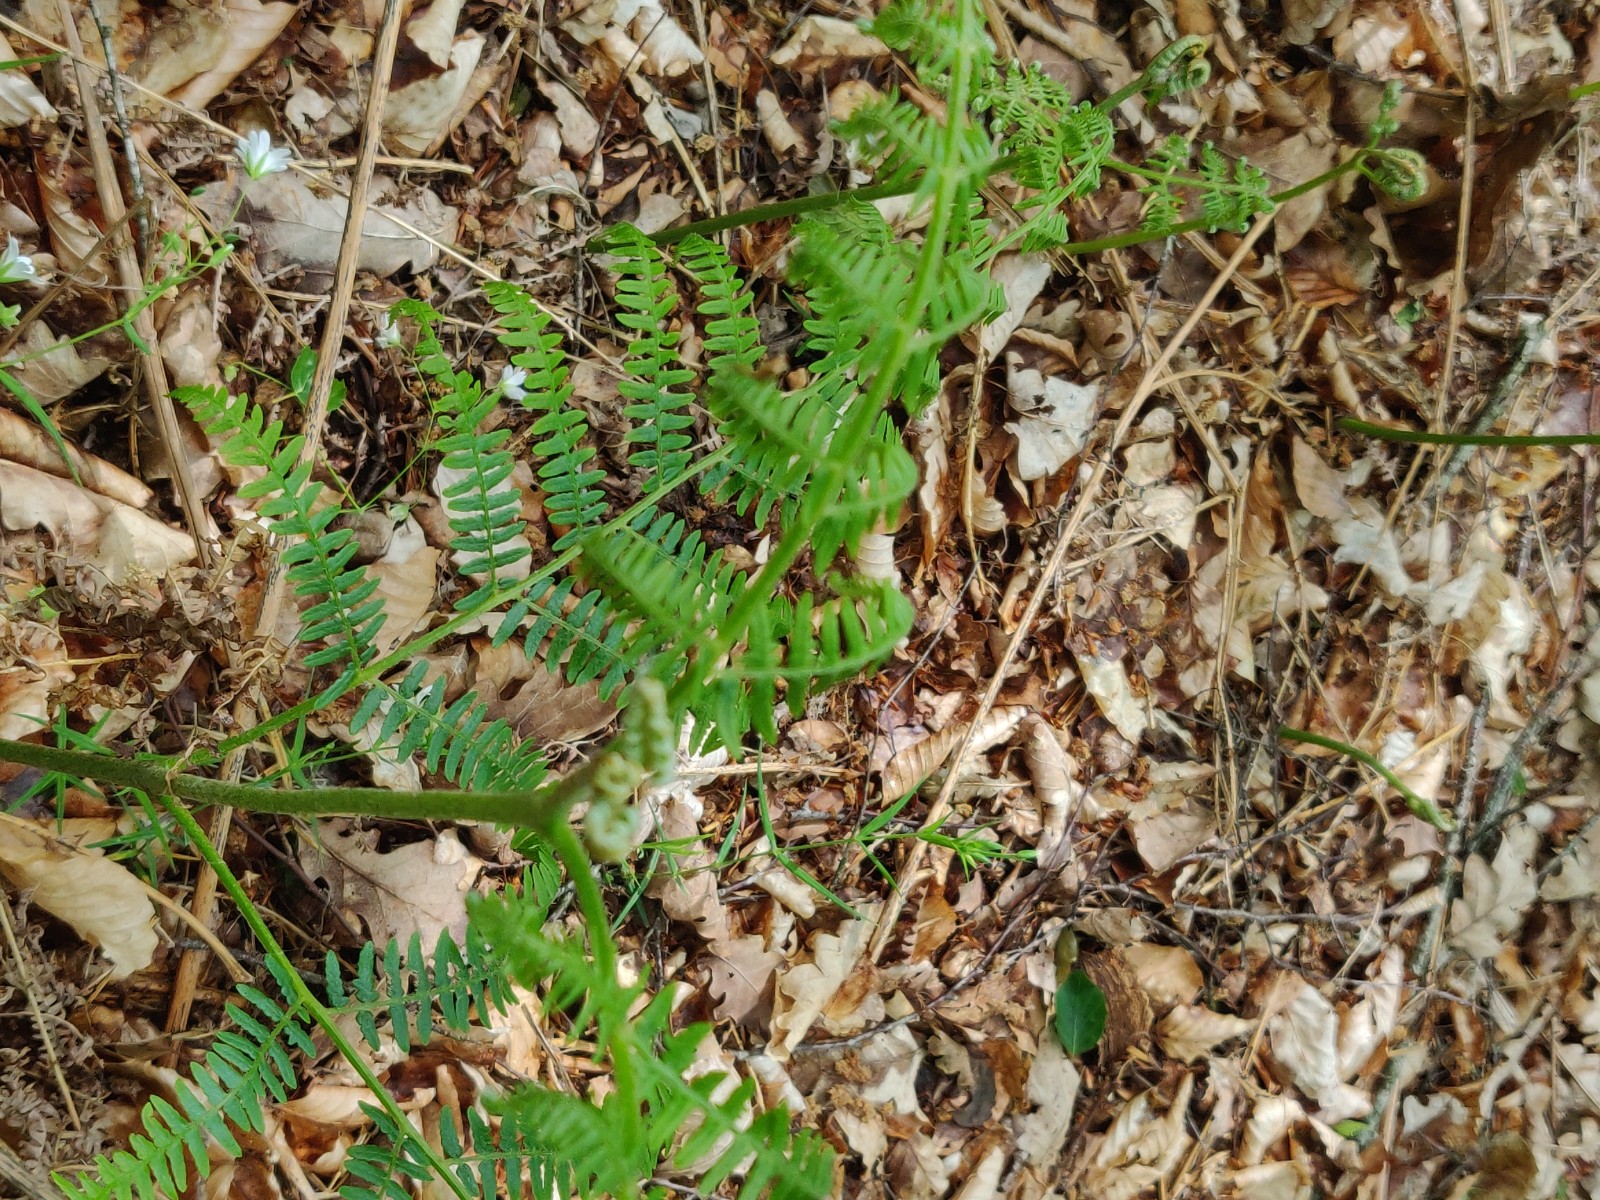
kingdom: Fungi
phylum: Ascomycota
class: Dothideomycetes
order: Pleosporales
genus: Rhopographus
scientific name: Rhopographus filicinus
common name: Bracken map
